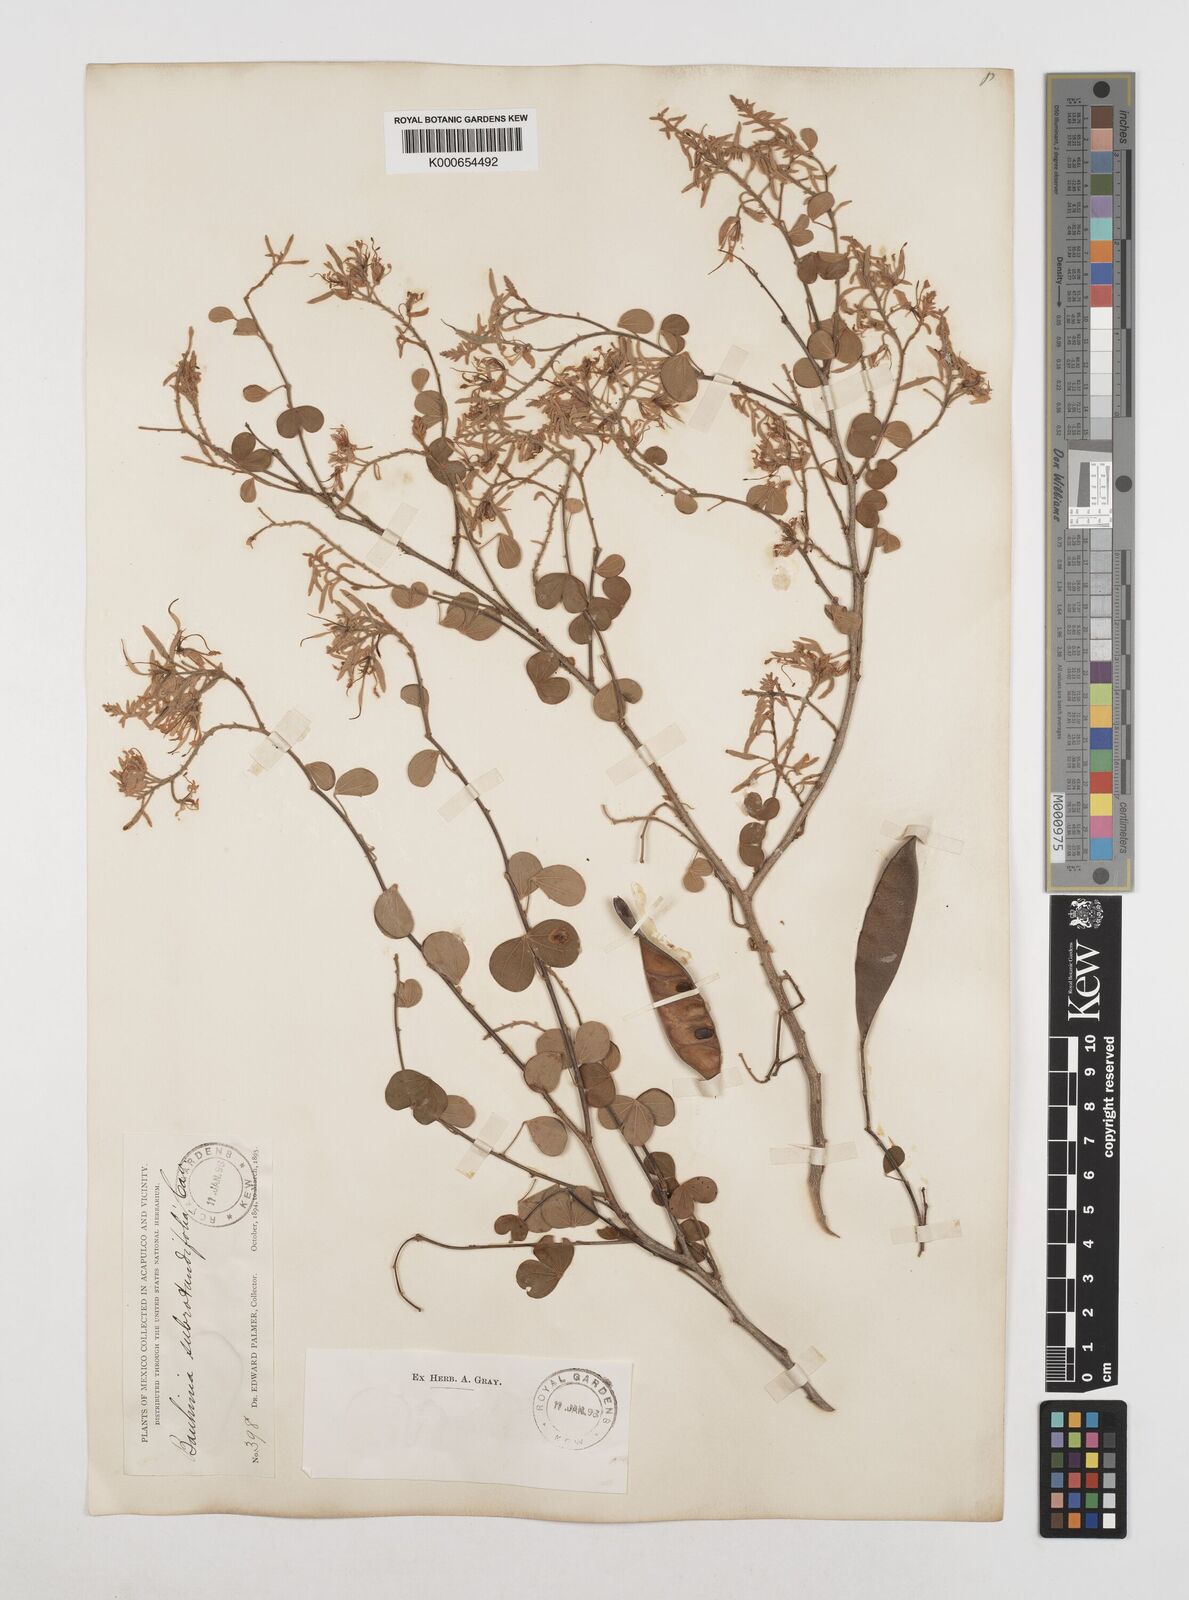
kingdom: Plantae
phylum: Tracheophyta
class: Magnoliopsida
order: Fabales
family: Fabaceae
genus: Bauhinia
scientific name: Bauhinia subrotundifolia
